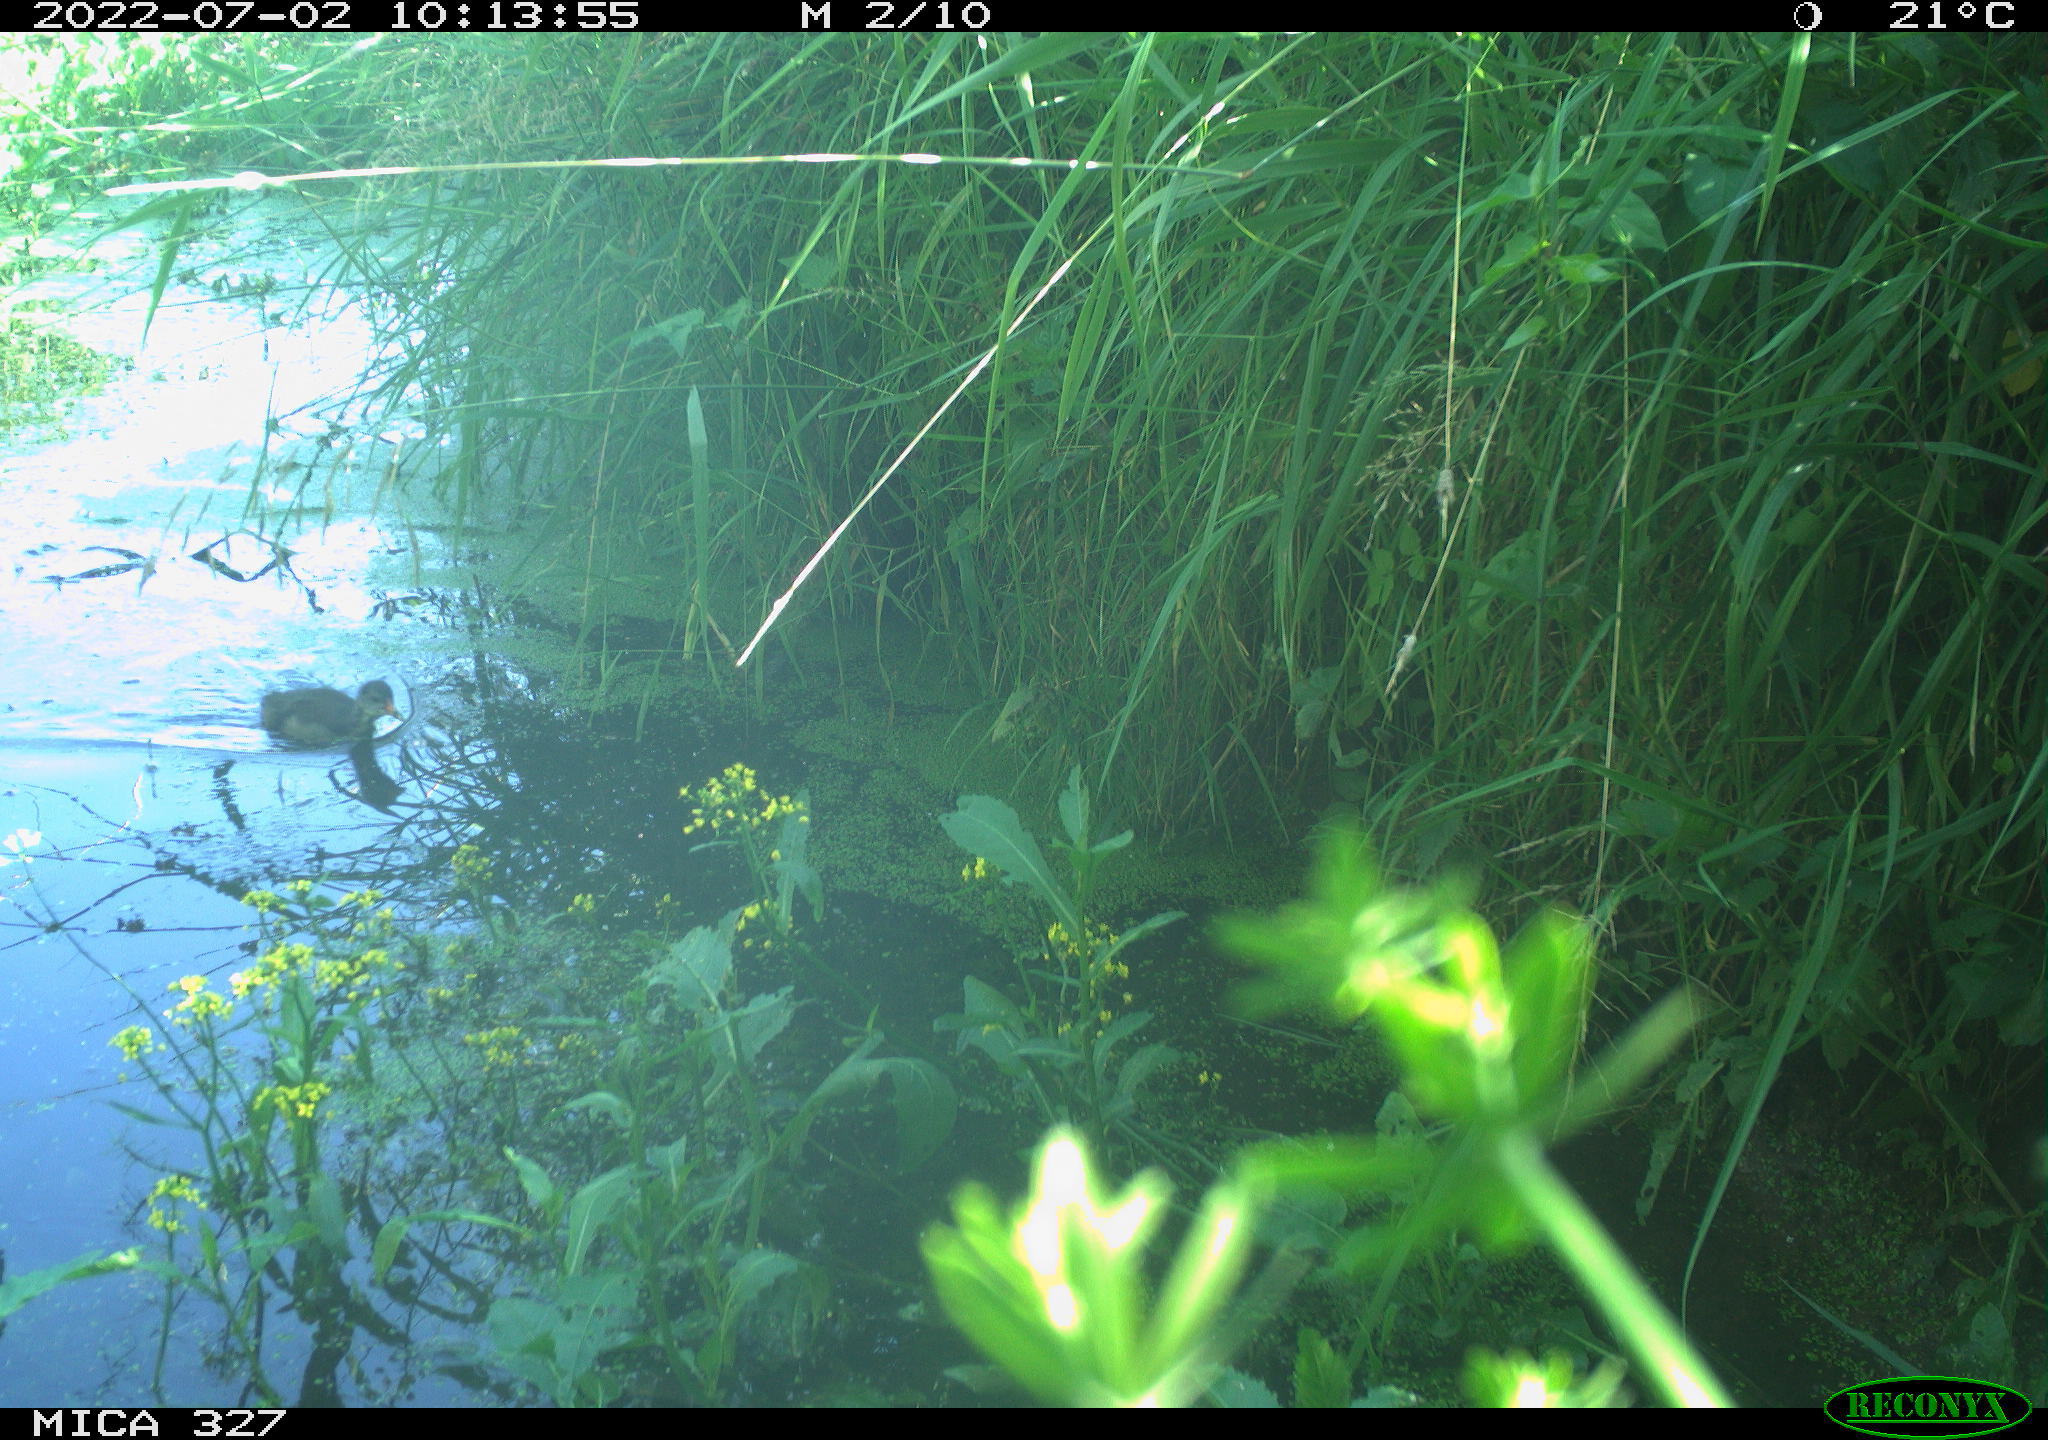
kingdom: Animalia
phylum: Chordata
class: Aves
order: Gruiformes
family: Rallidae
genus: Gallinula
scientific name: Gallinula chloropus
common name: Common moorhen
